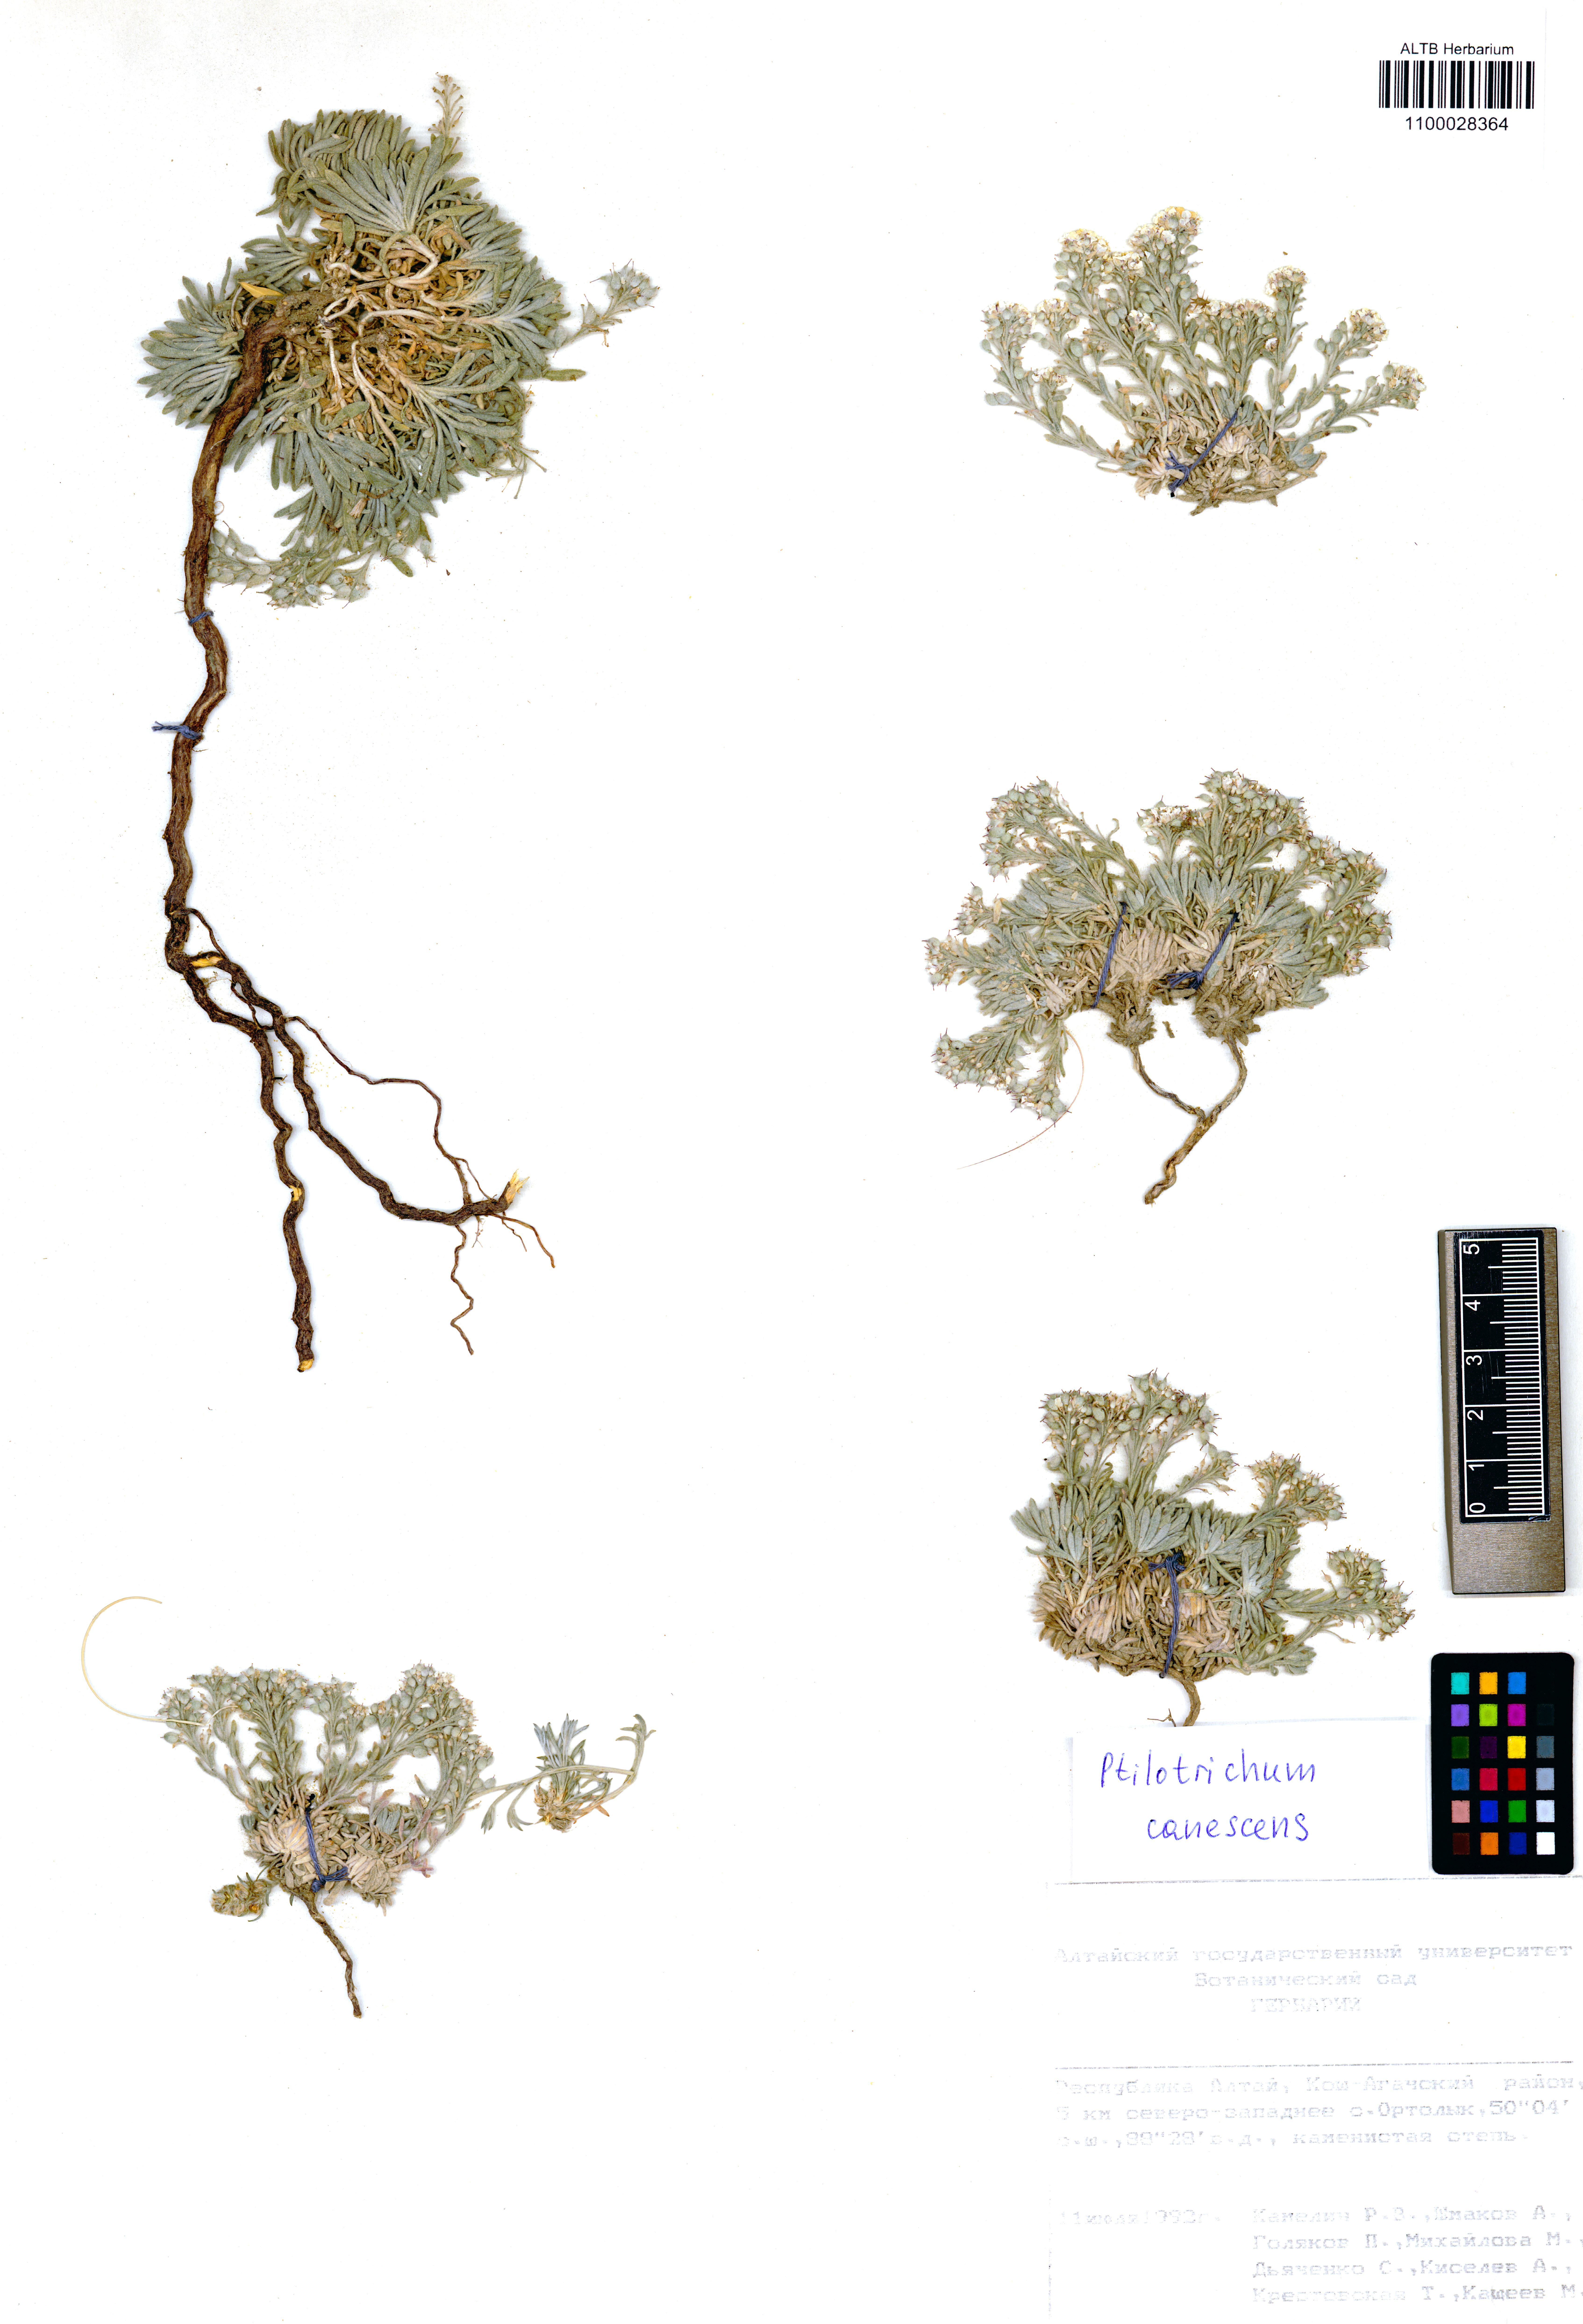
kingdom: Plantae
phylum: Tracheophyta
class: Magnoliopsida
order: Brassicales
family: Brassicaceae
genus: Stevenia
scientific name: Stevenia canescens
